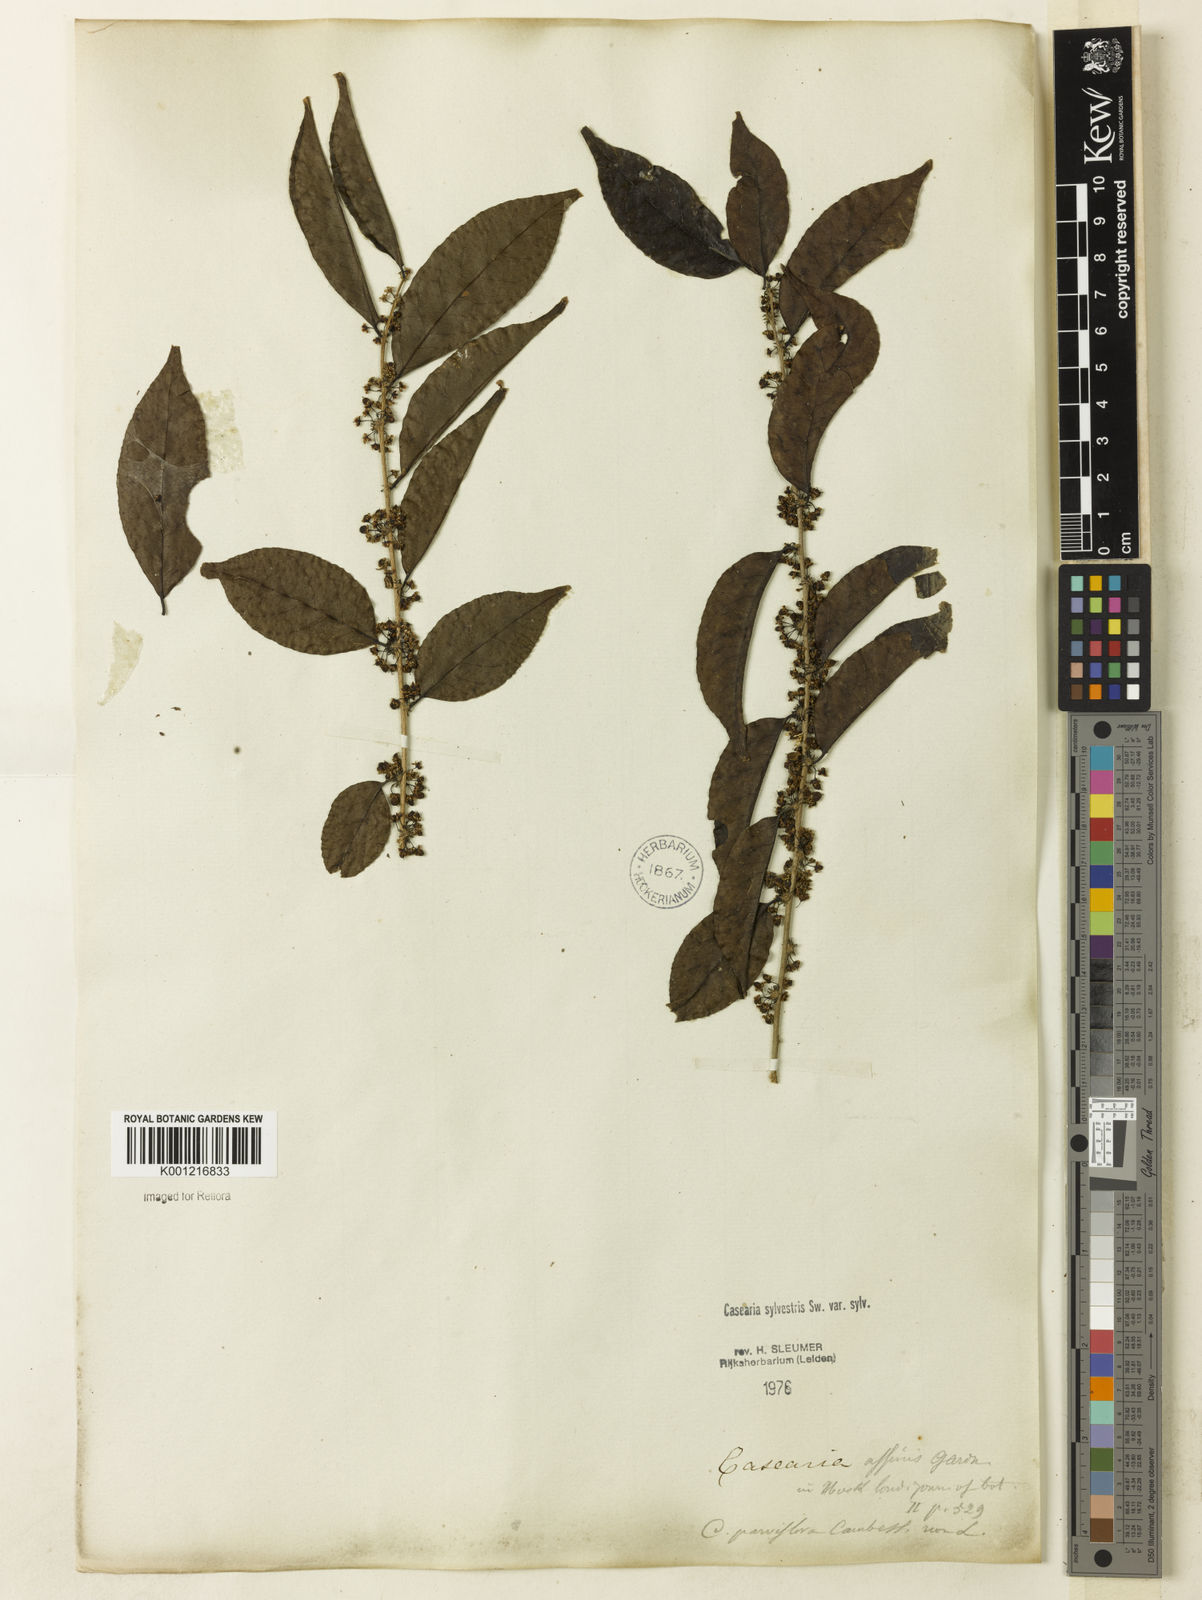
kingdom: Plantae
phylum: Tracheophyta
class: Magnoliopsida
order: Malpighiales
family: Salicaceae
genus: Casearia
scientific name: Casearia sylvestris
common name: Wild sage
